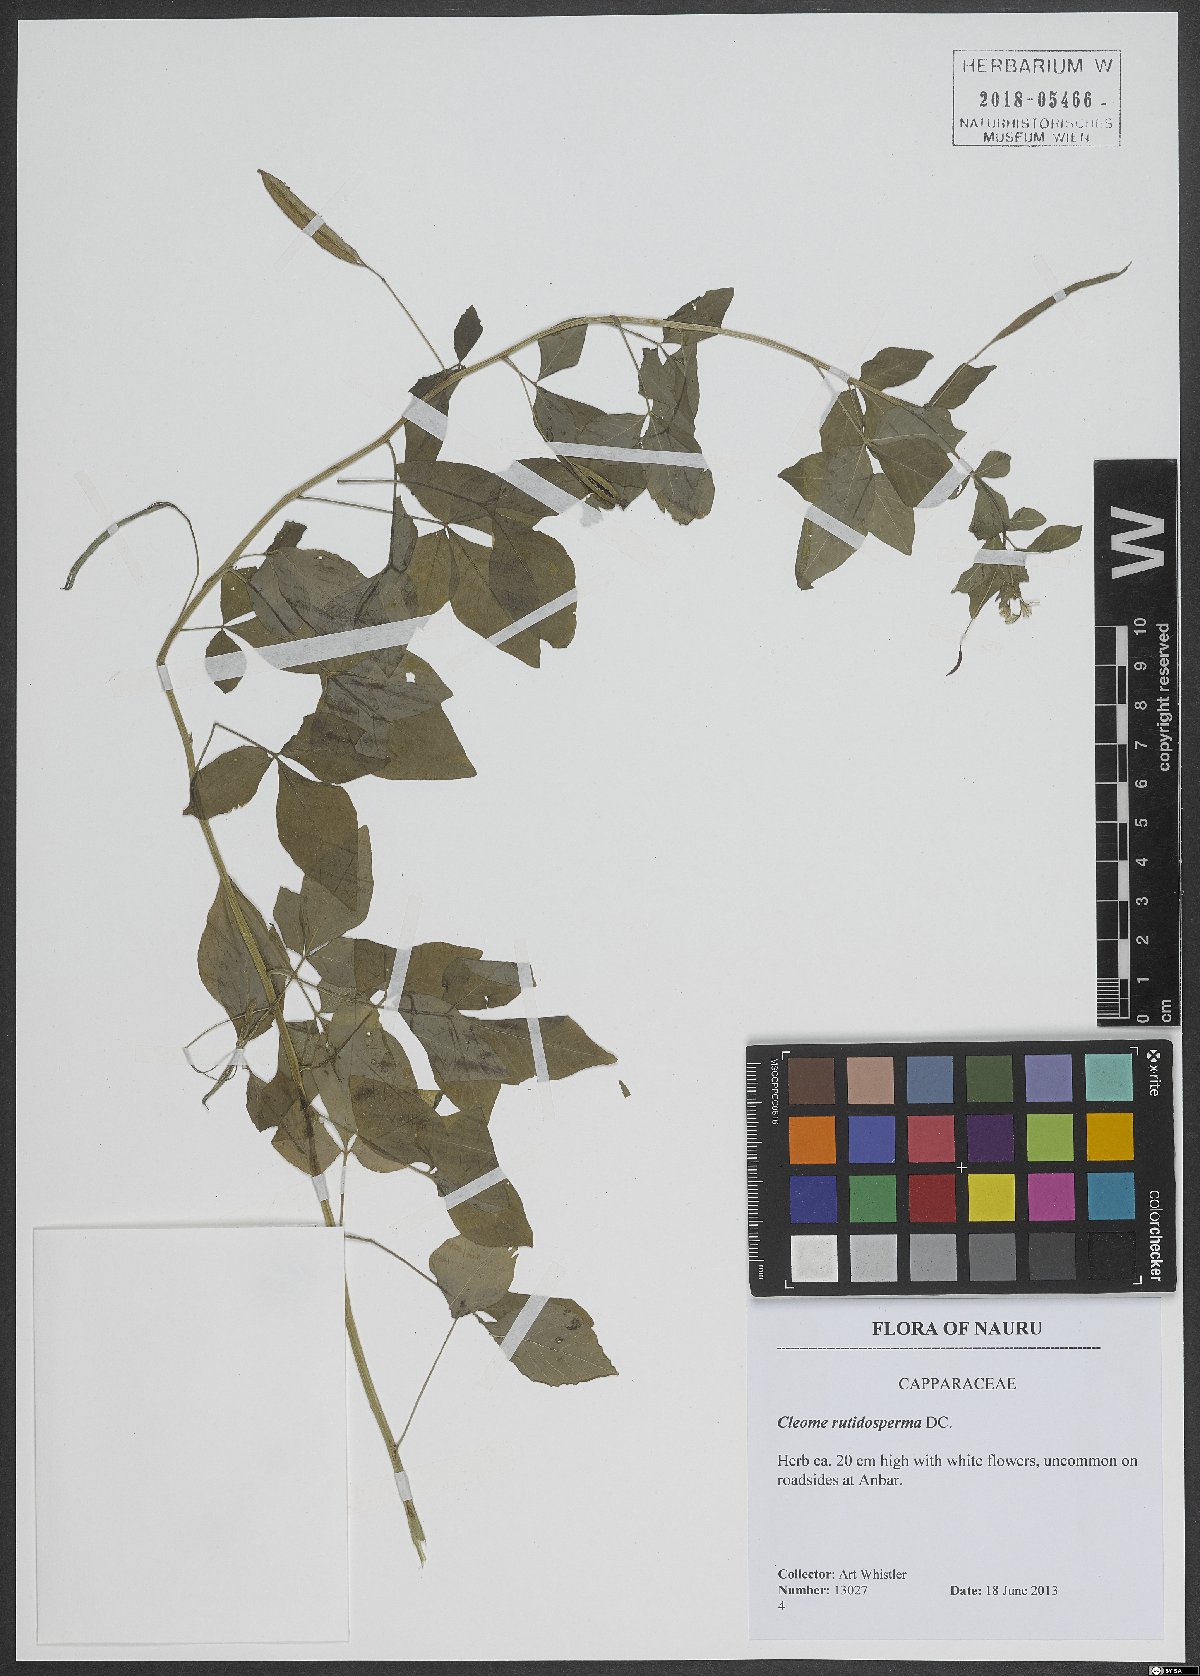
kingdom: Plantae
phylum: Tracheophyta
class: Magnoliopsida
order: Brassicales
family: Cleomaceae
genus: Sieruela
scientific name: Sieruela rutidosperma
